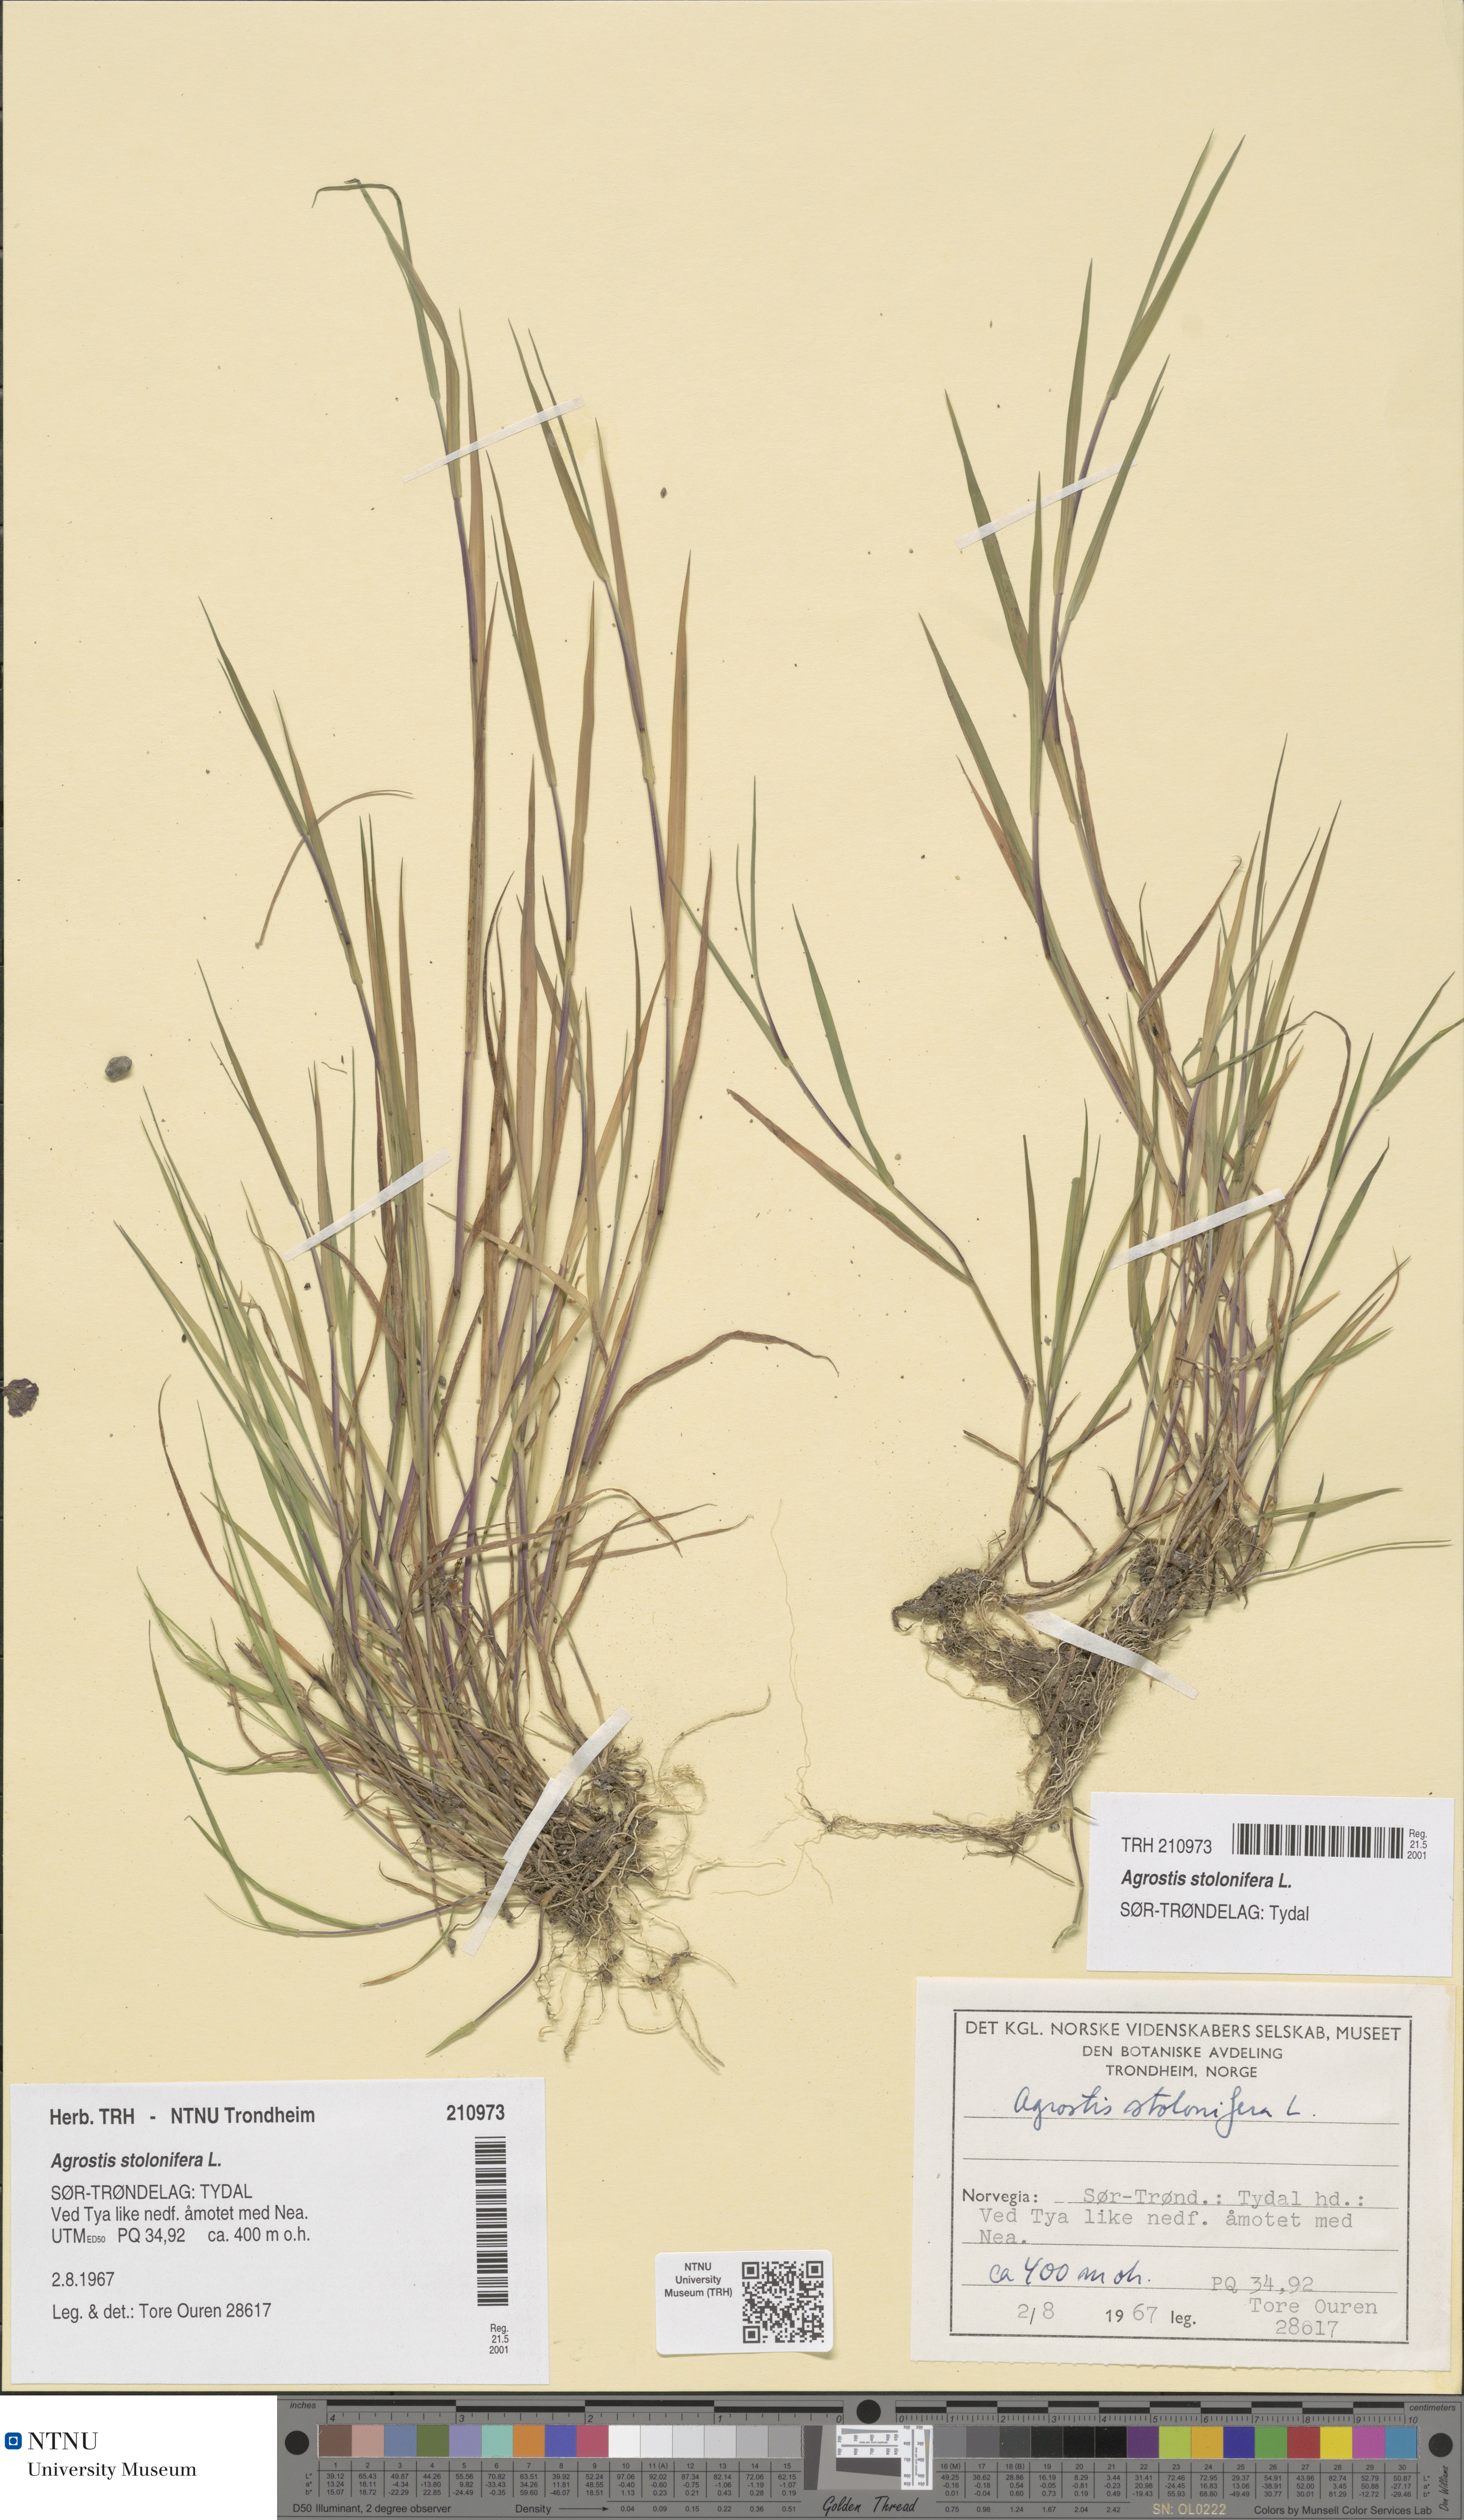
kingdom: Plantae
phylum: Tracheophyta
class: Liliopsida
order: Poales
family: Poaceae
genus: Agrostis
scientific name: Agrostis stolonifera
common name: Creeping bentgrass
